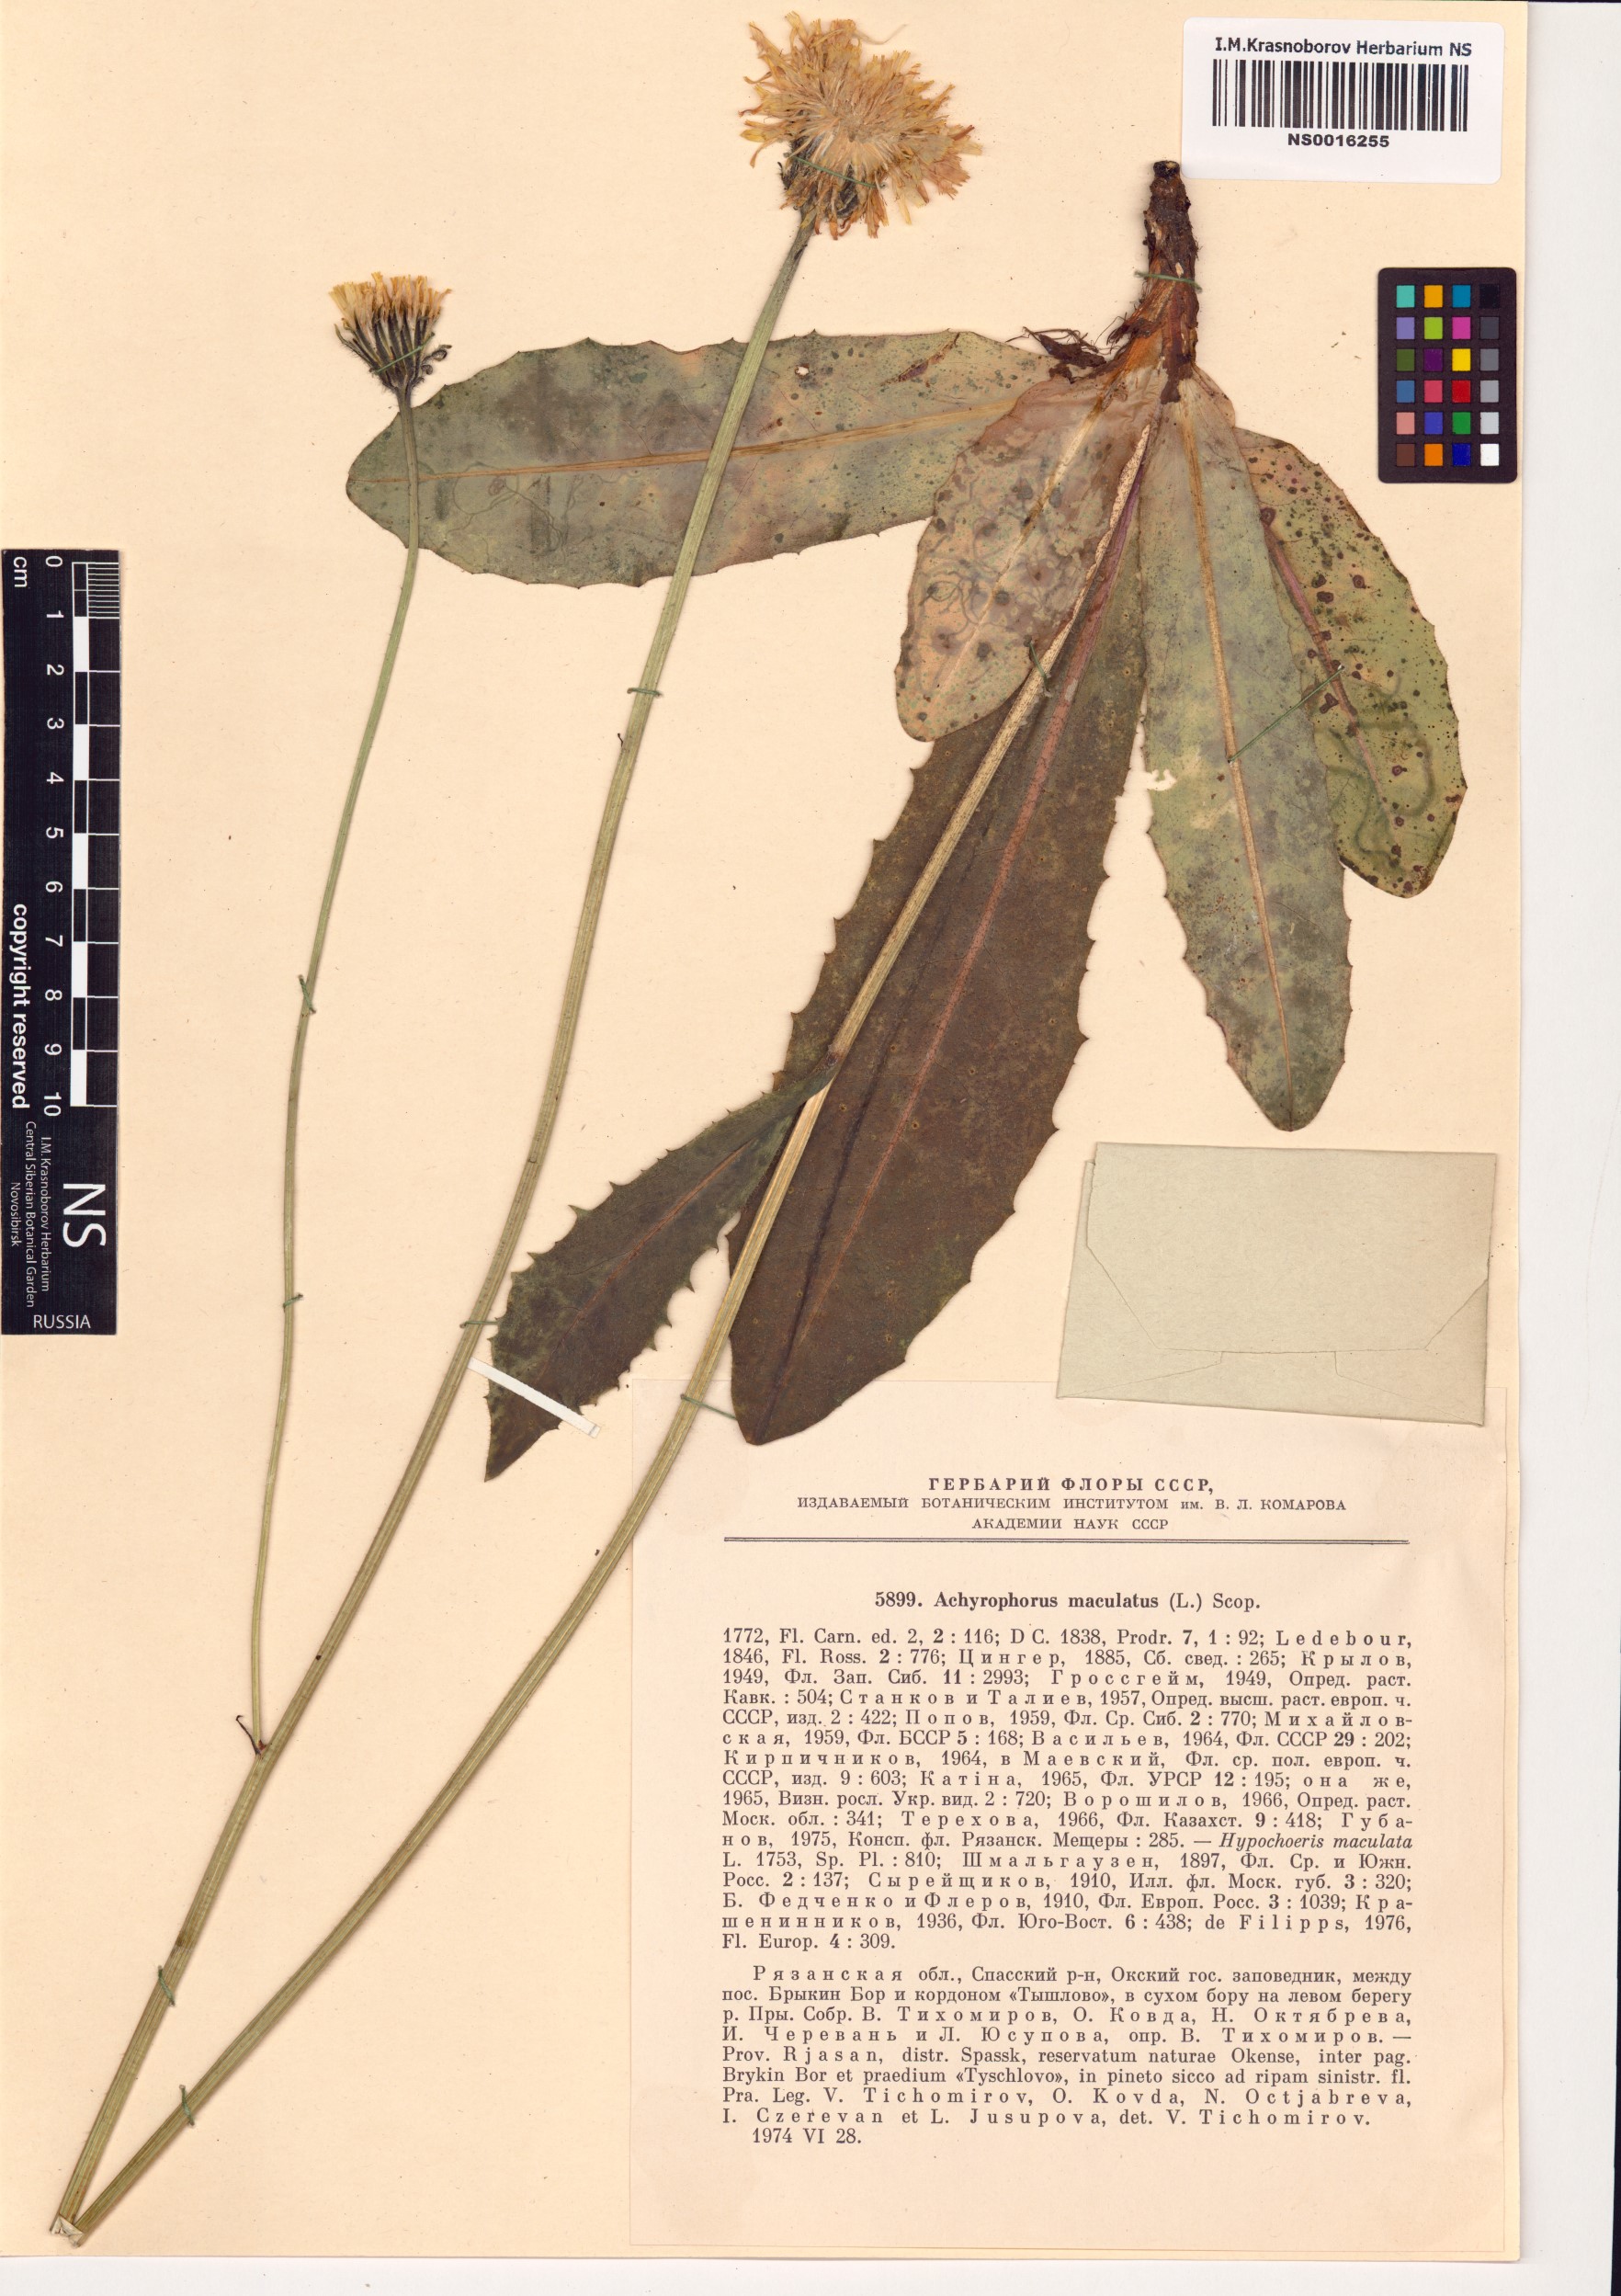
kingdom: Plantae
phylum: Tracheophyta
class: Magnoliopsida
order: Asterales
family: Asteraceae
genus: Trommsdorffia
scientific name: Trommsdorffia maculata
